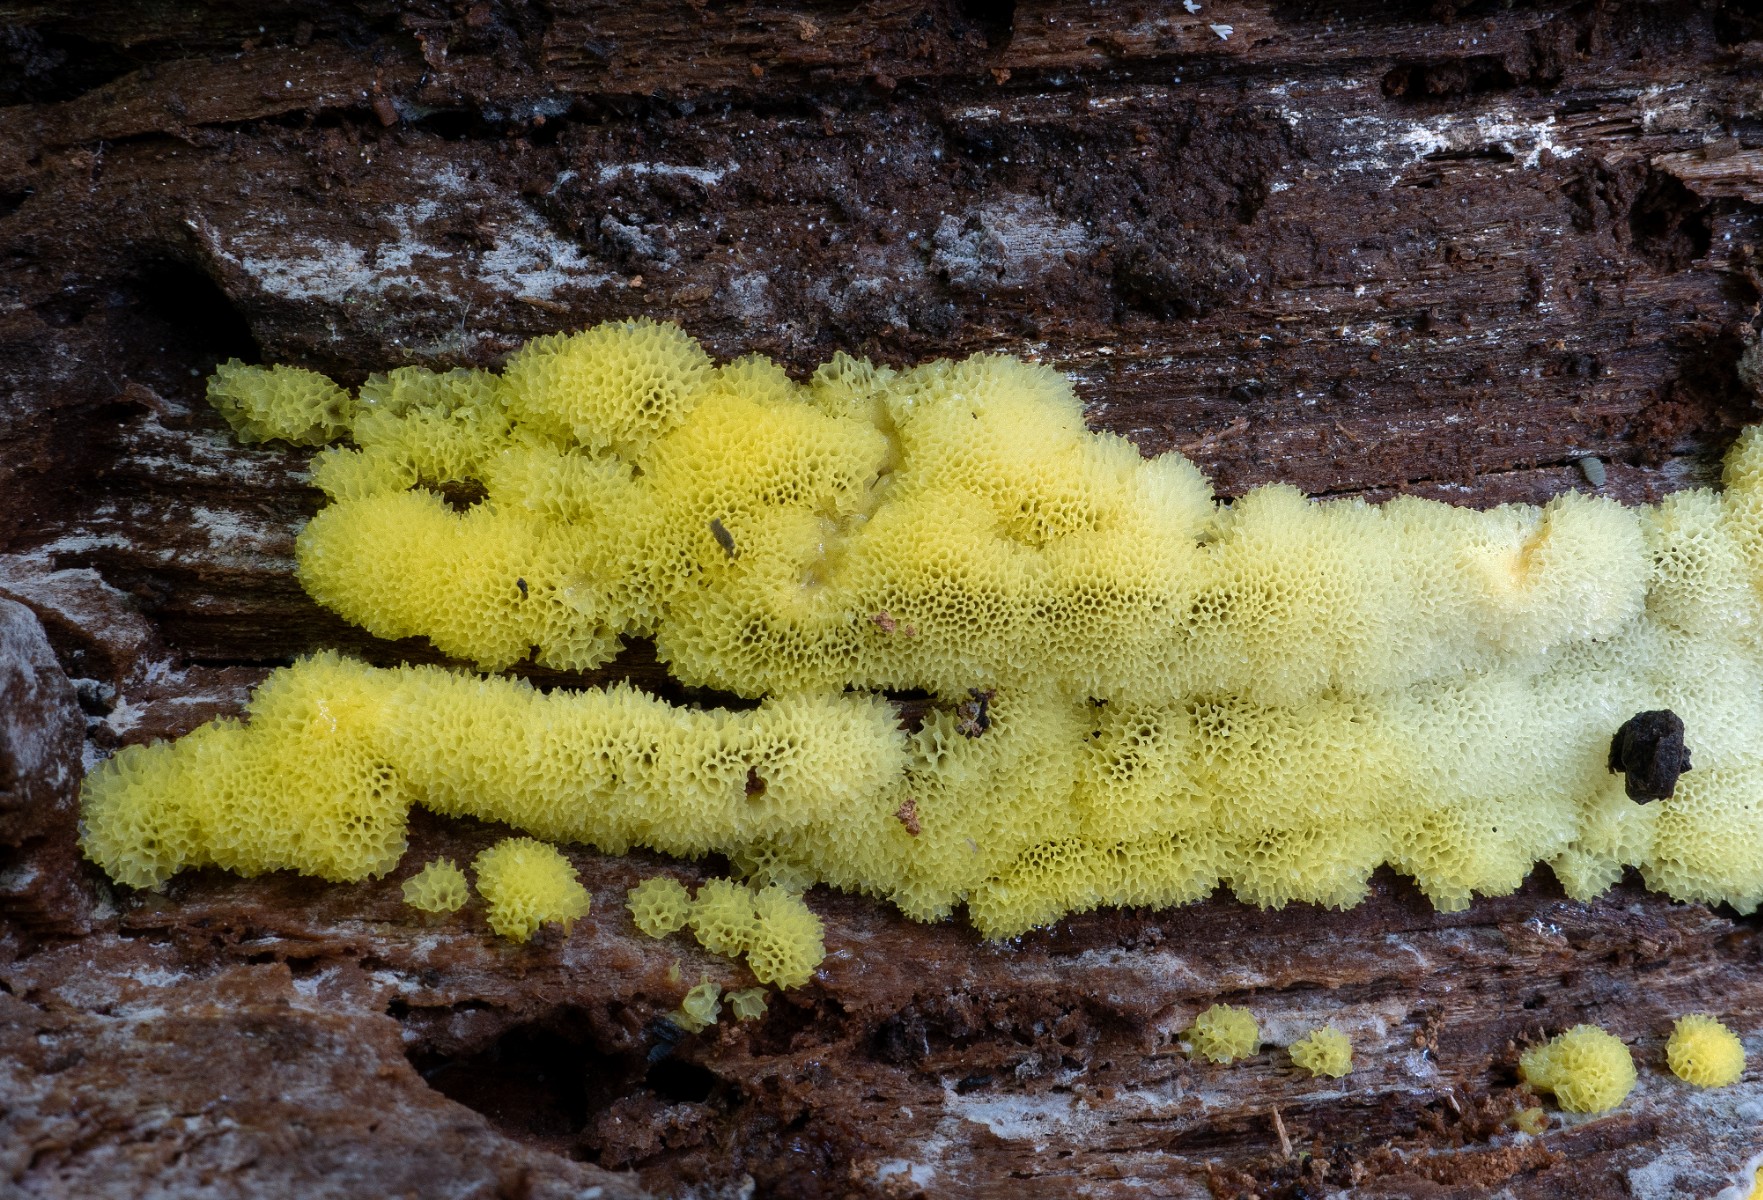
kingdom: Protozoa
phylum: Mycetozoa
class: Protosteliomycetes
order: Ceratiomyxales
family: Ceratiomyxaceae
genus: Ceratiomyxa
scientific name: Ceratiomyxa fruticulosa
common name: Honeycomb coral slime mold
